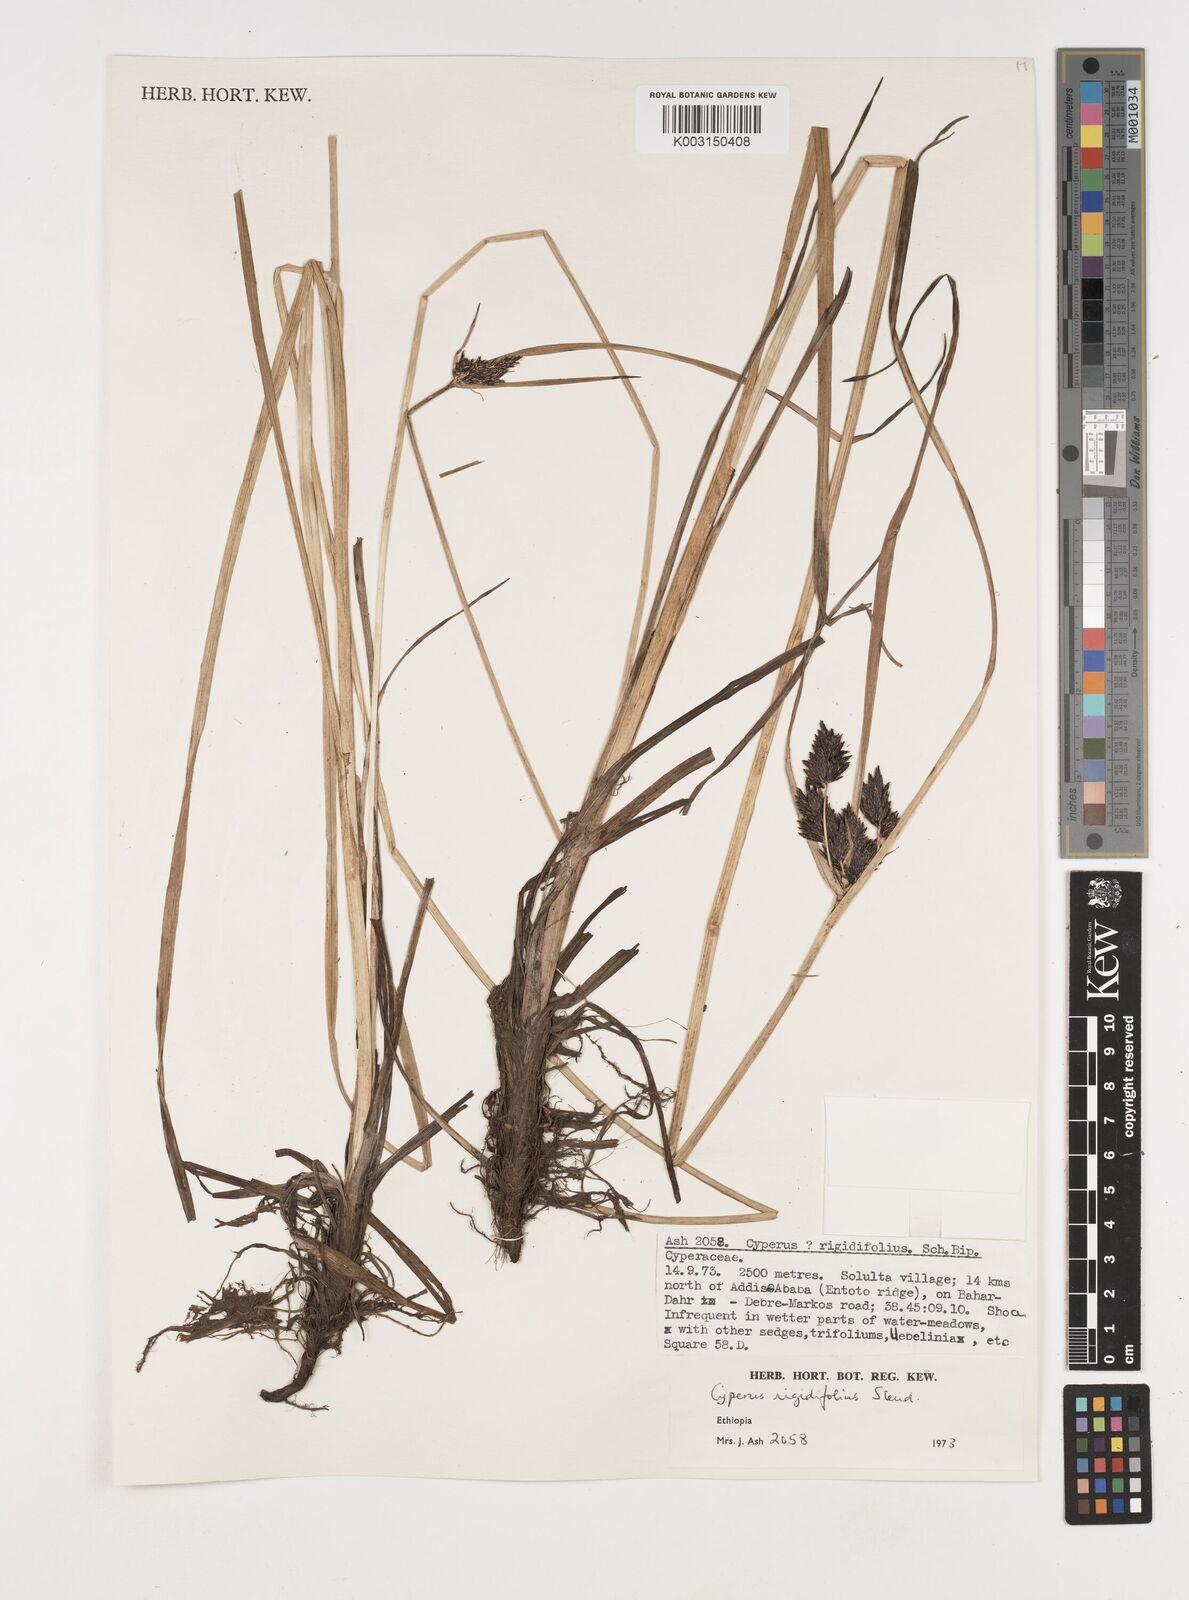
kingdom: Plantae
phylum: Tracheophyta
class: Liliopsida
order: Poales
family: Cyperaceae
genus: Cyperus
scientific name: Cyperus rigidifolius
